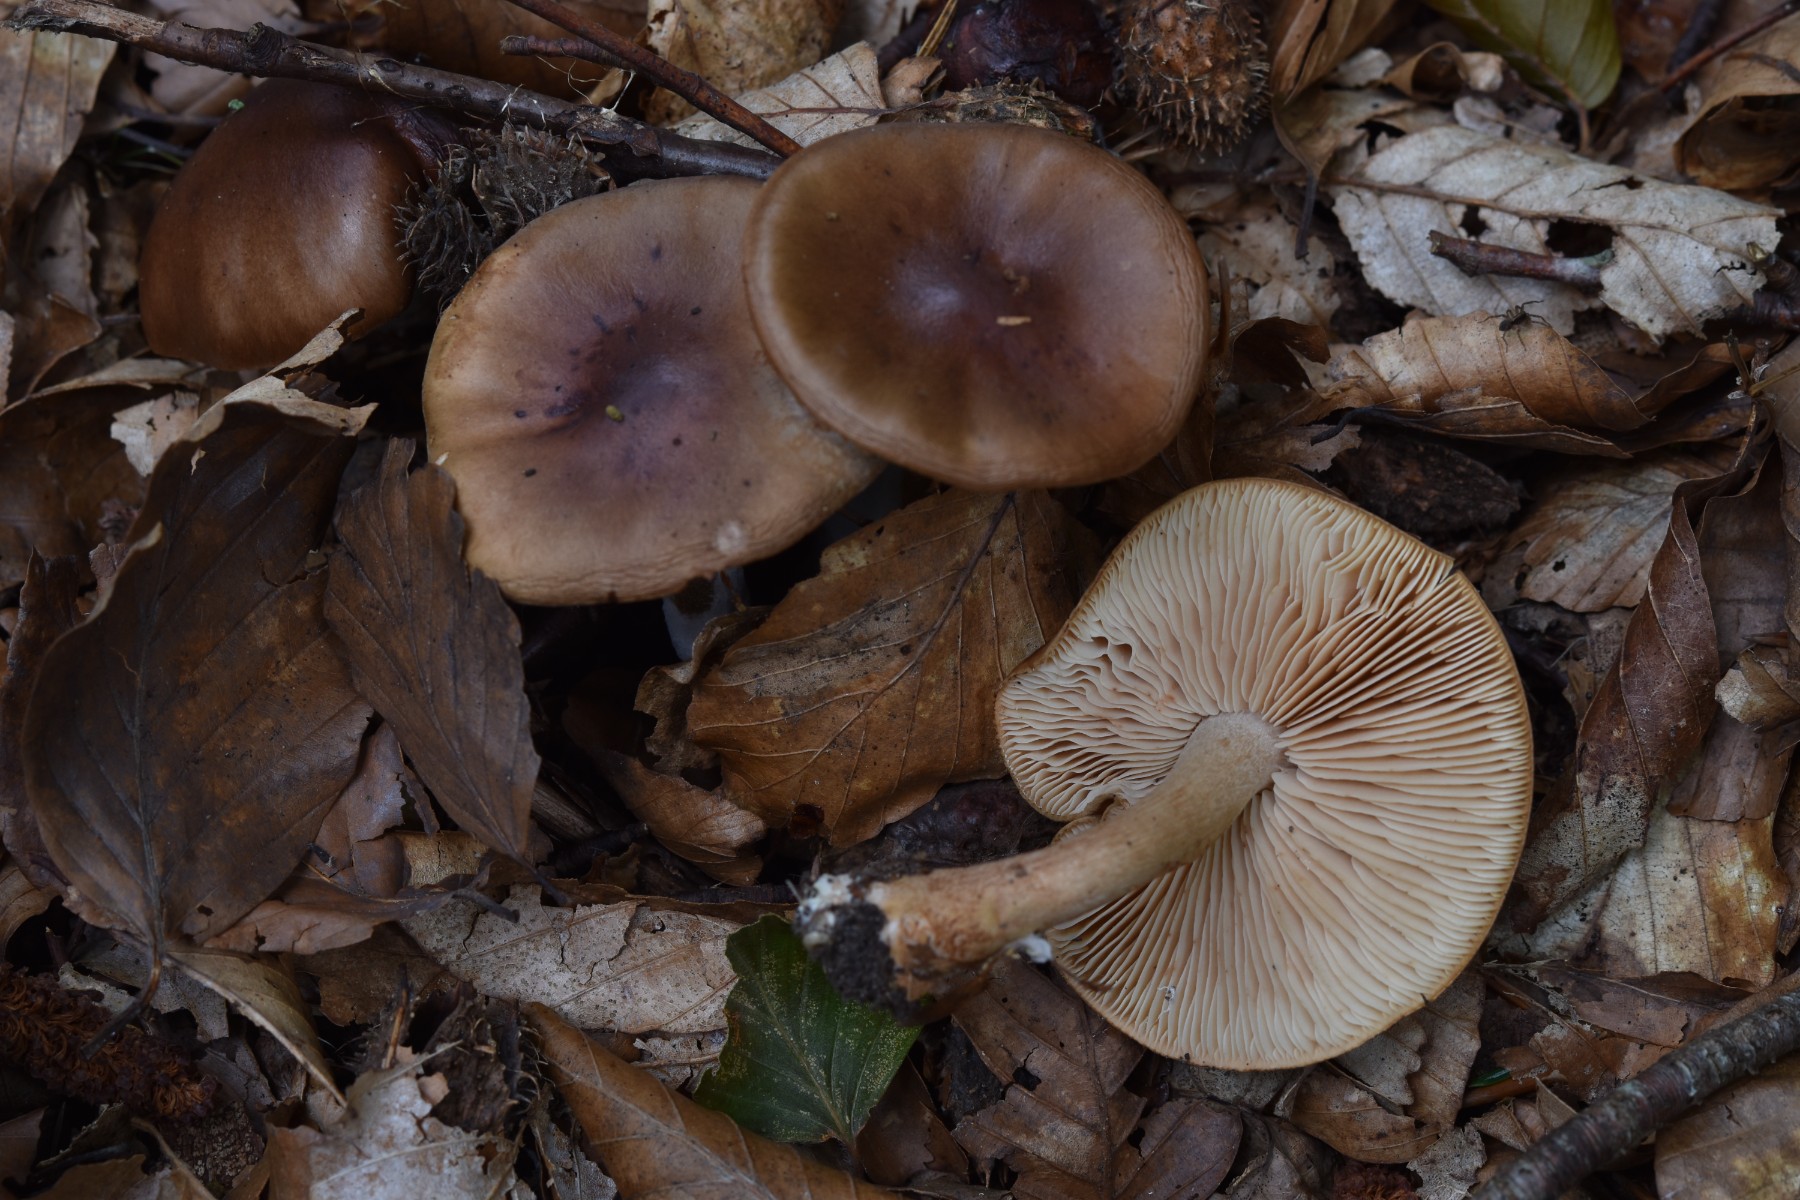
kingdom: Fungi
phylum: Basidiomycota
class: Agaricomycetes
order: Agaricales
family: Tricholomataceae
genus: Tricholoma
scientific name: Tricholoma ustale
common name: sveden ridderhat
